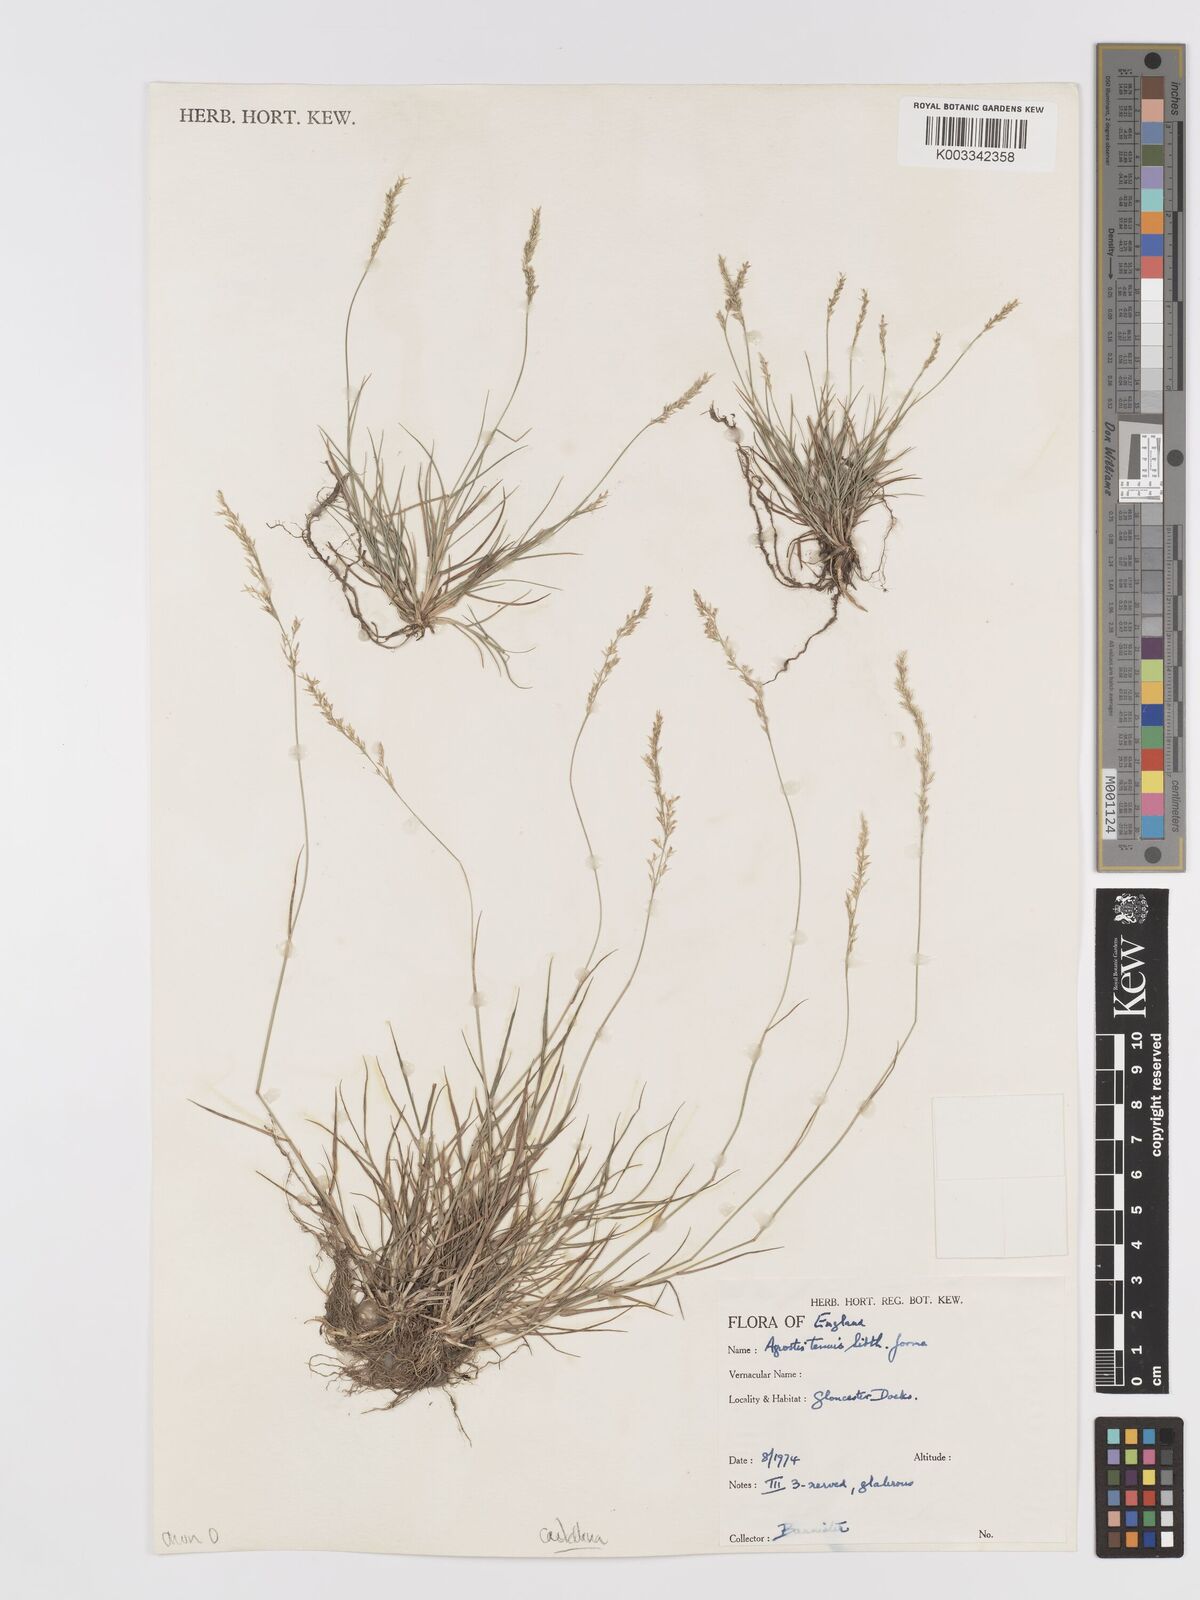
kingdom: Plantae
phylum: Tracheophyta
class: Liliopsida
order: Poales
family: Poaceae
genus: Agrostis
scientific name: Agrostis castellana
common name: Highland bent
